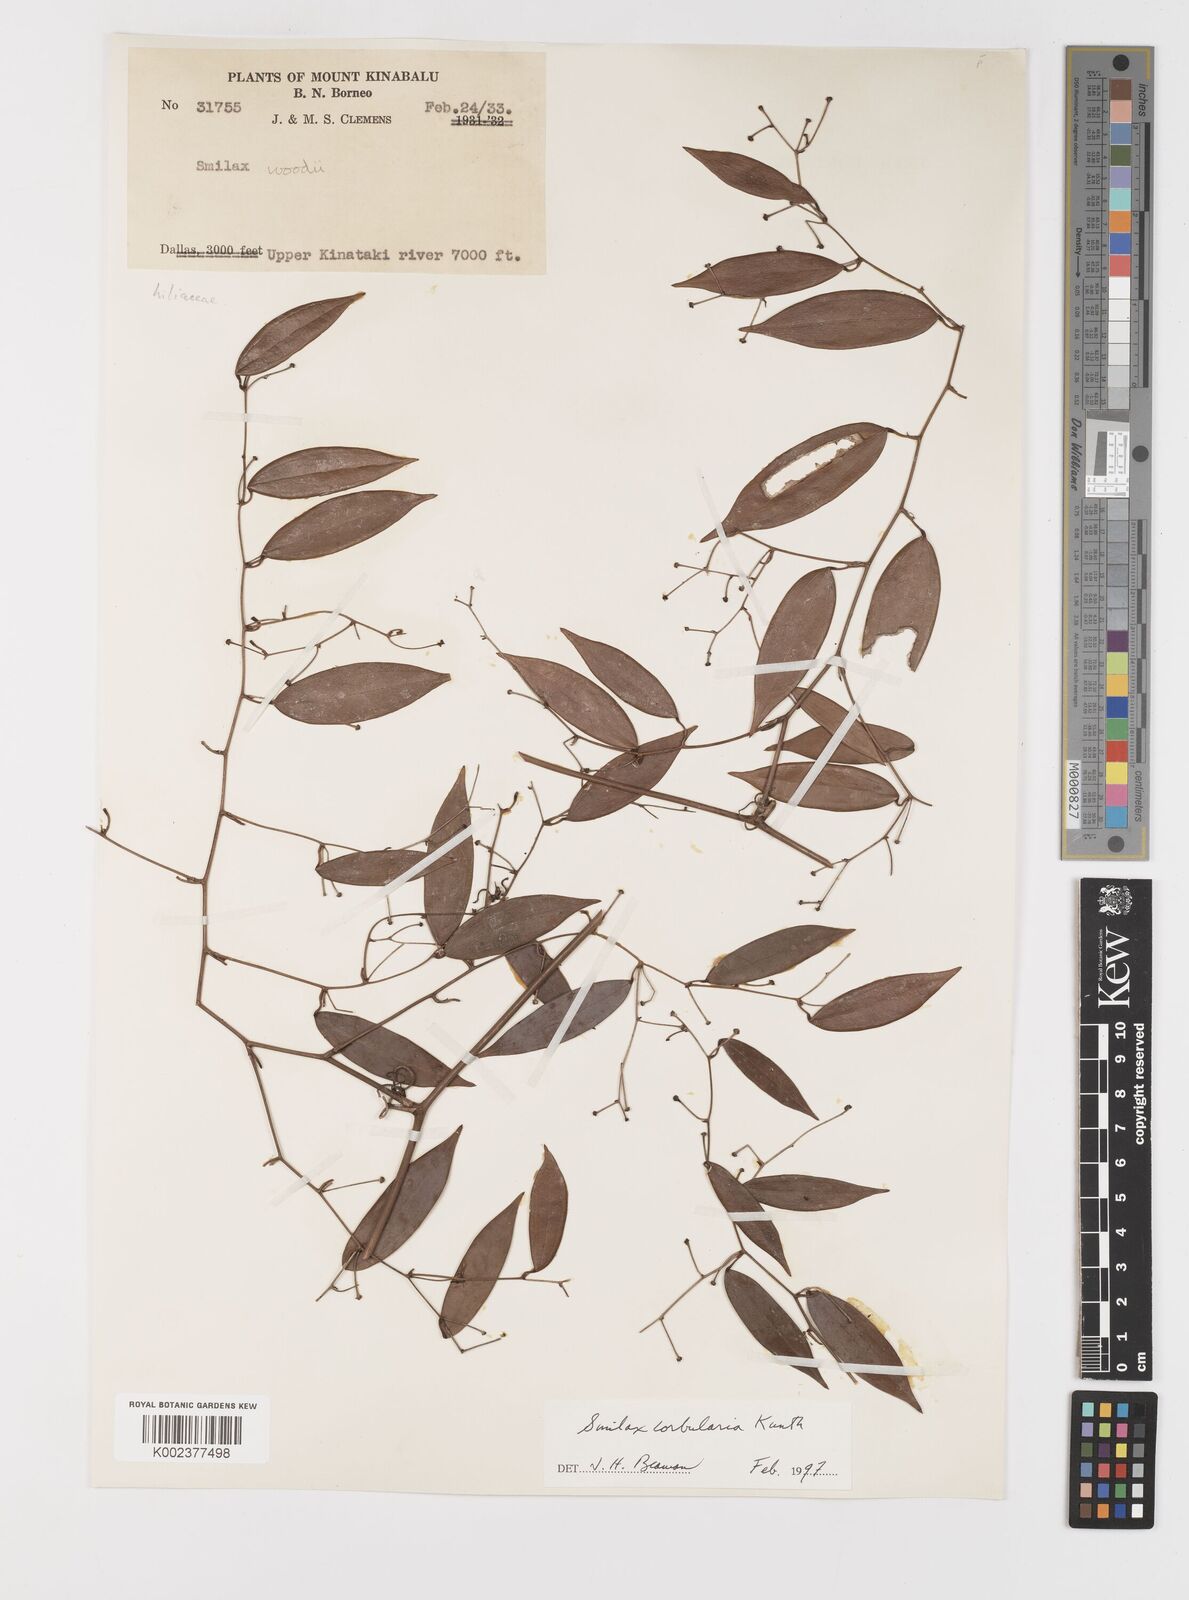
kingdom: Plantae
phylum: Tracheophyta
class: Liliopsida
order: Liliales
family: Smilacaceae
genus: Smilax
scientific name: Smilax corbularia
